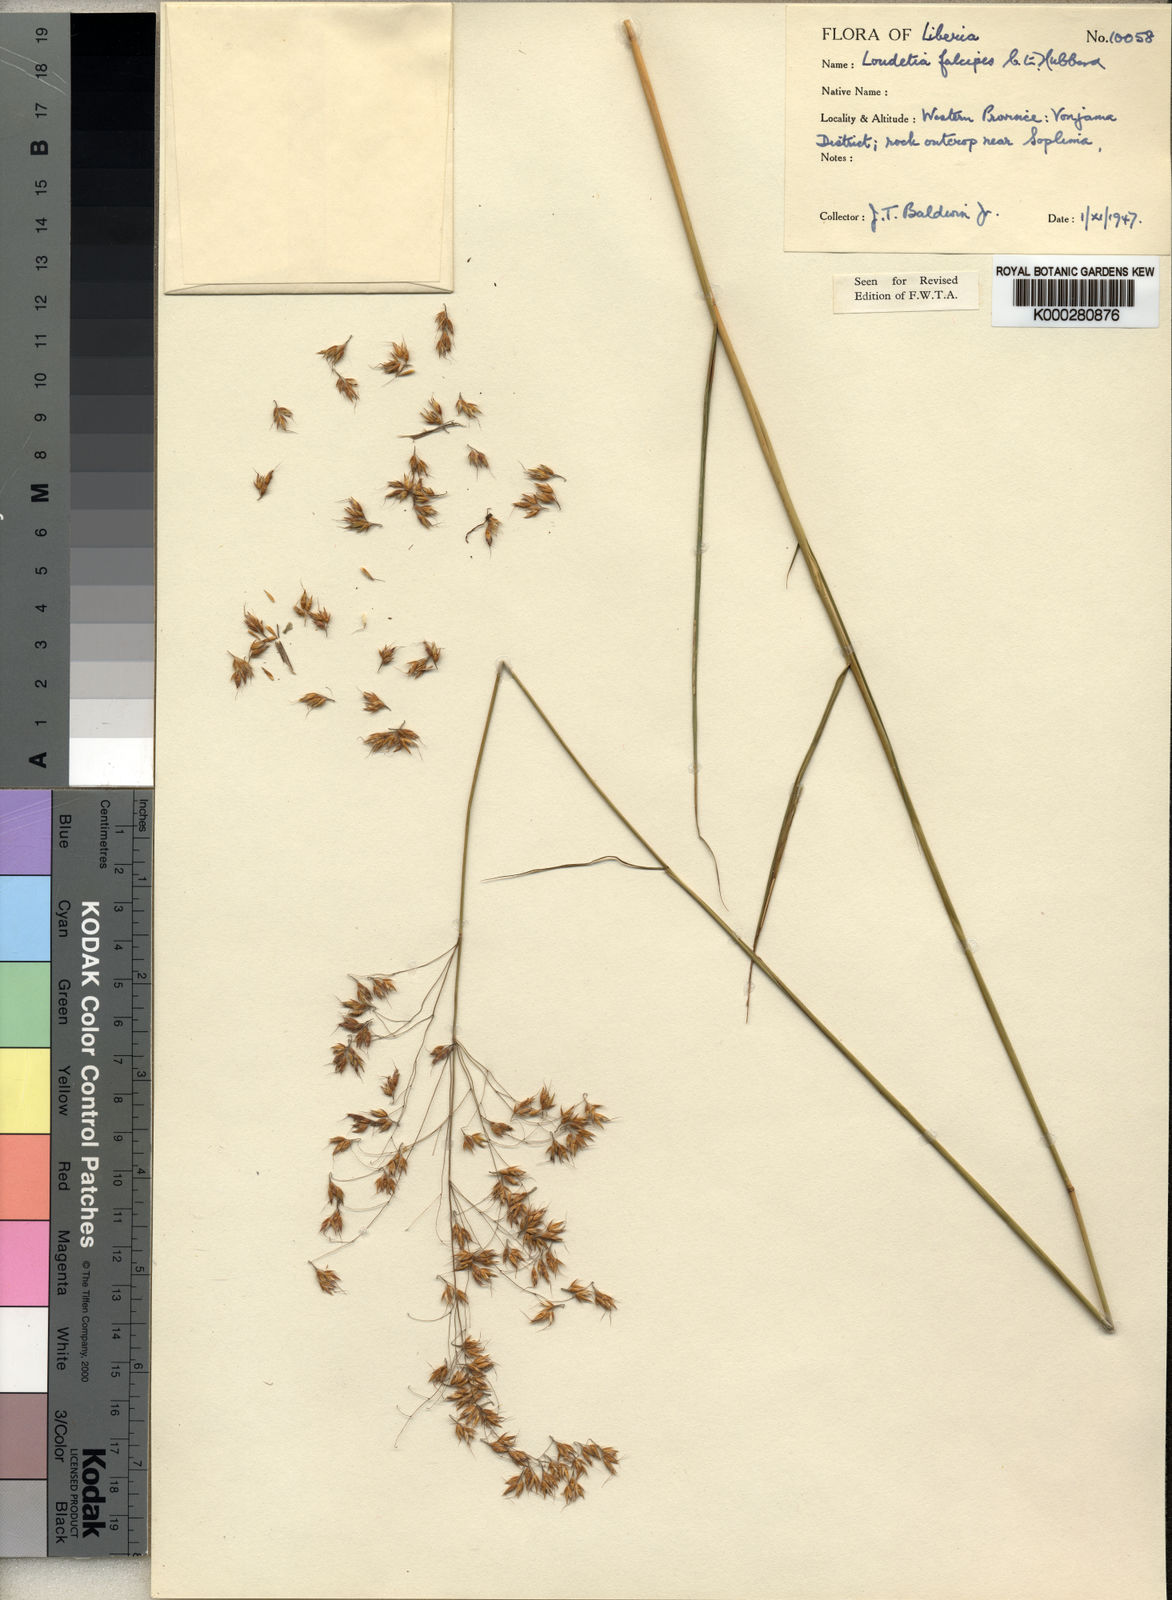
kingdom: Plantae
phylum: Tracheophyta
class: Liliopsida
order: Poales
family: Poaceae
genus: Loudetiopsis
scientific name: Loudetiopsis falcipes
